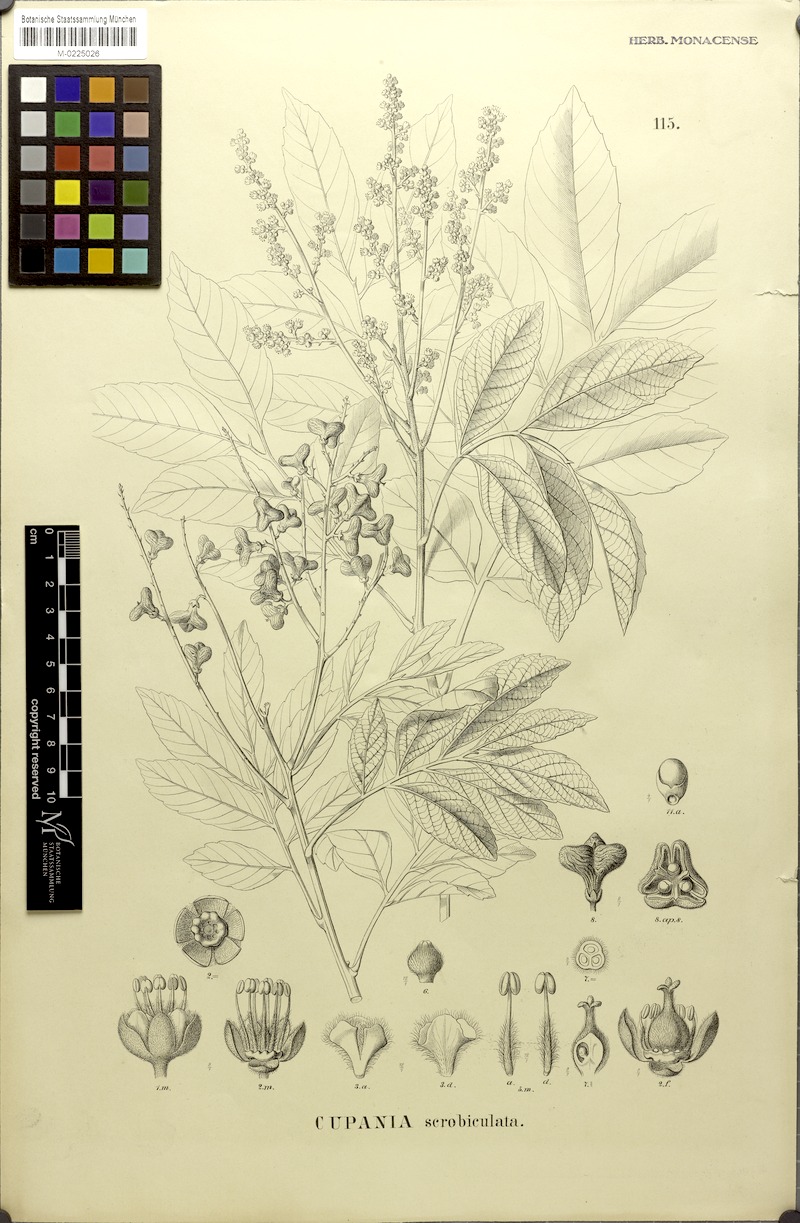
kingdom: Plantae
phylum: Tracheophyta
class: Magnoliopsida
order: Sapindales
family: Sapindaceae
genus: Cupania
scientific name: Cupania scrobiculata
